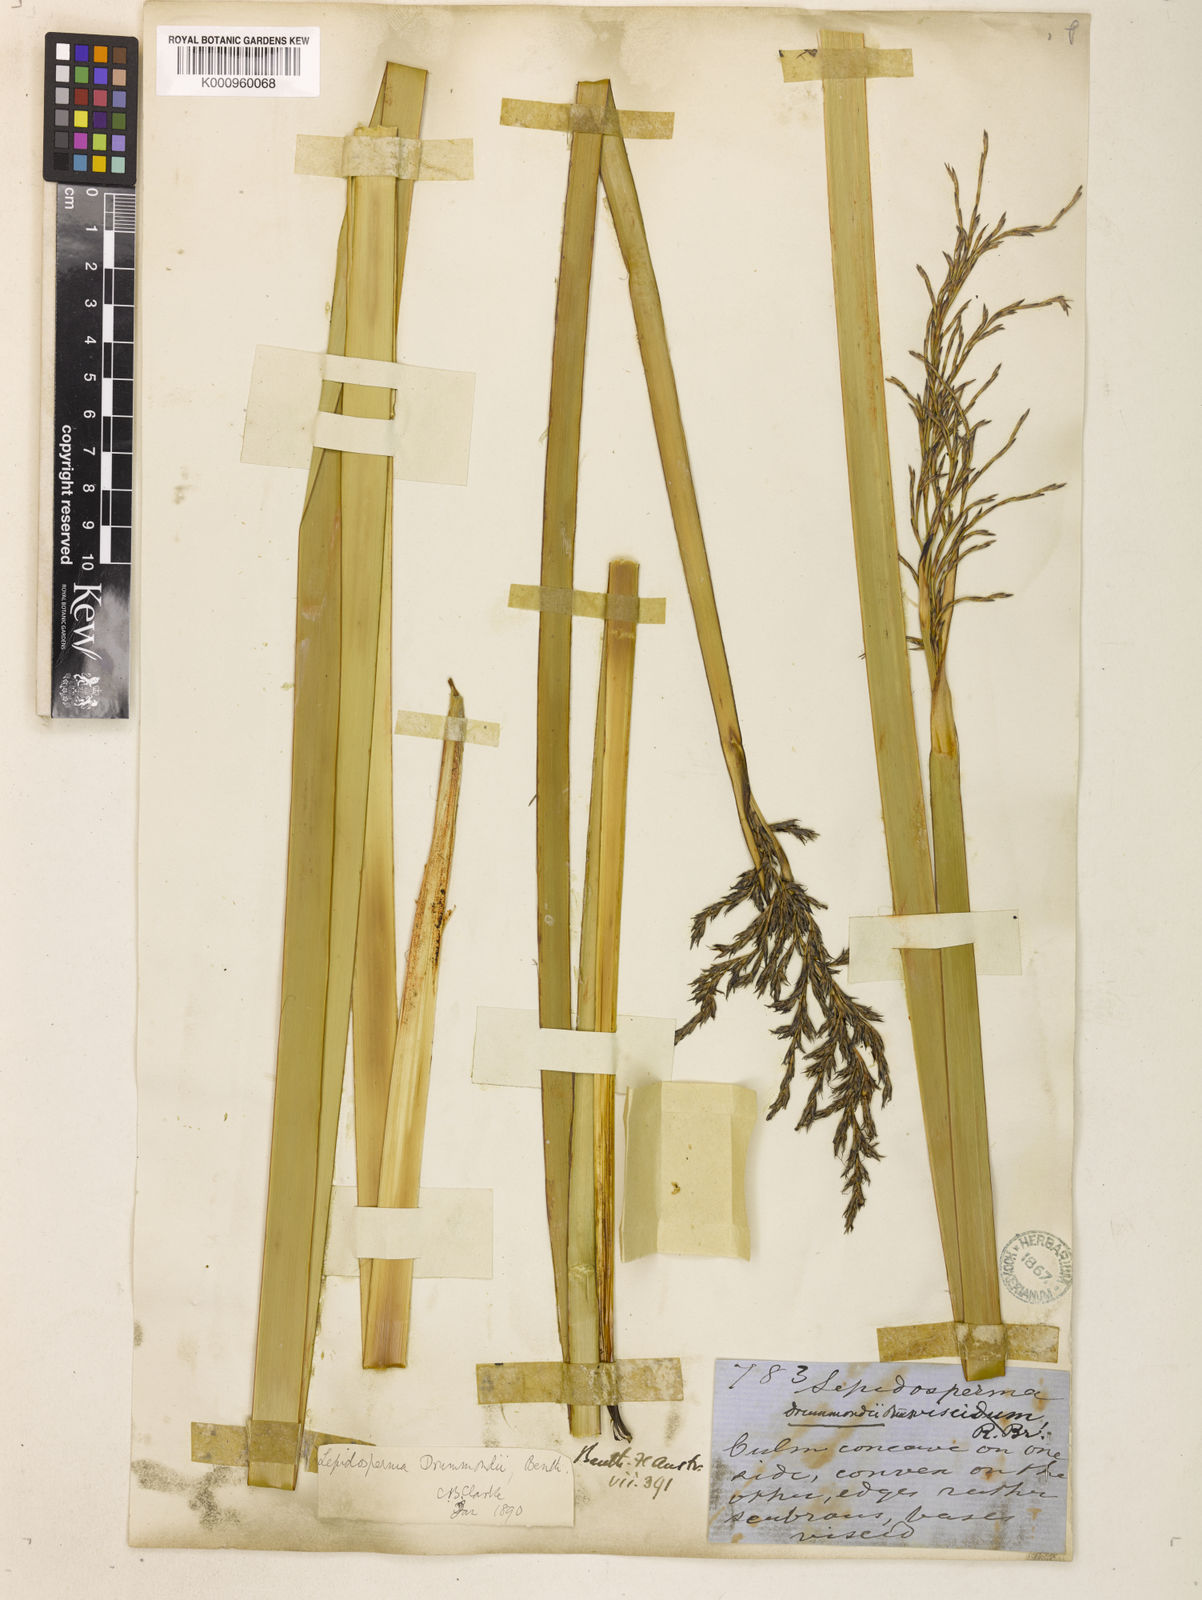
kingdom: Plantae
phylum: Tracheophyta
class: Liliopsida
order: Poales
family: Cyperaceae
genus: Lepidosperma
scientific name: Lepidosperma drummondii
